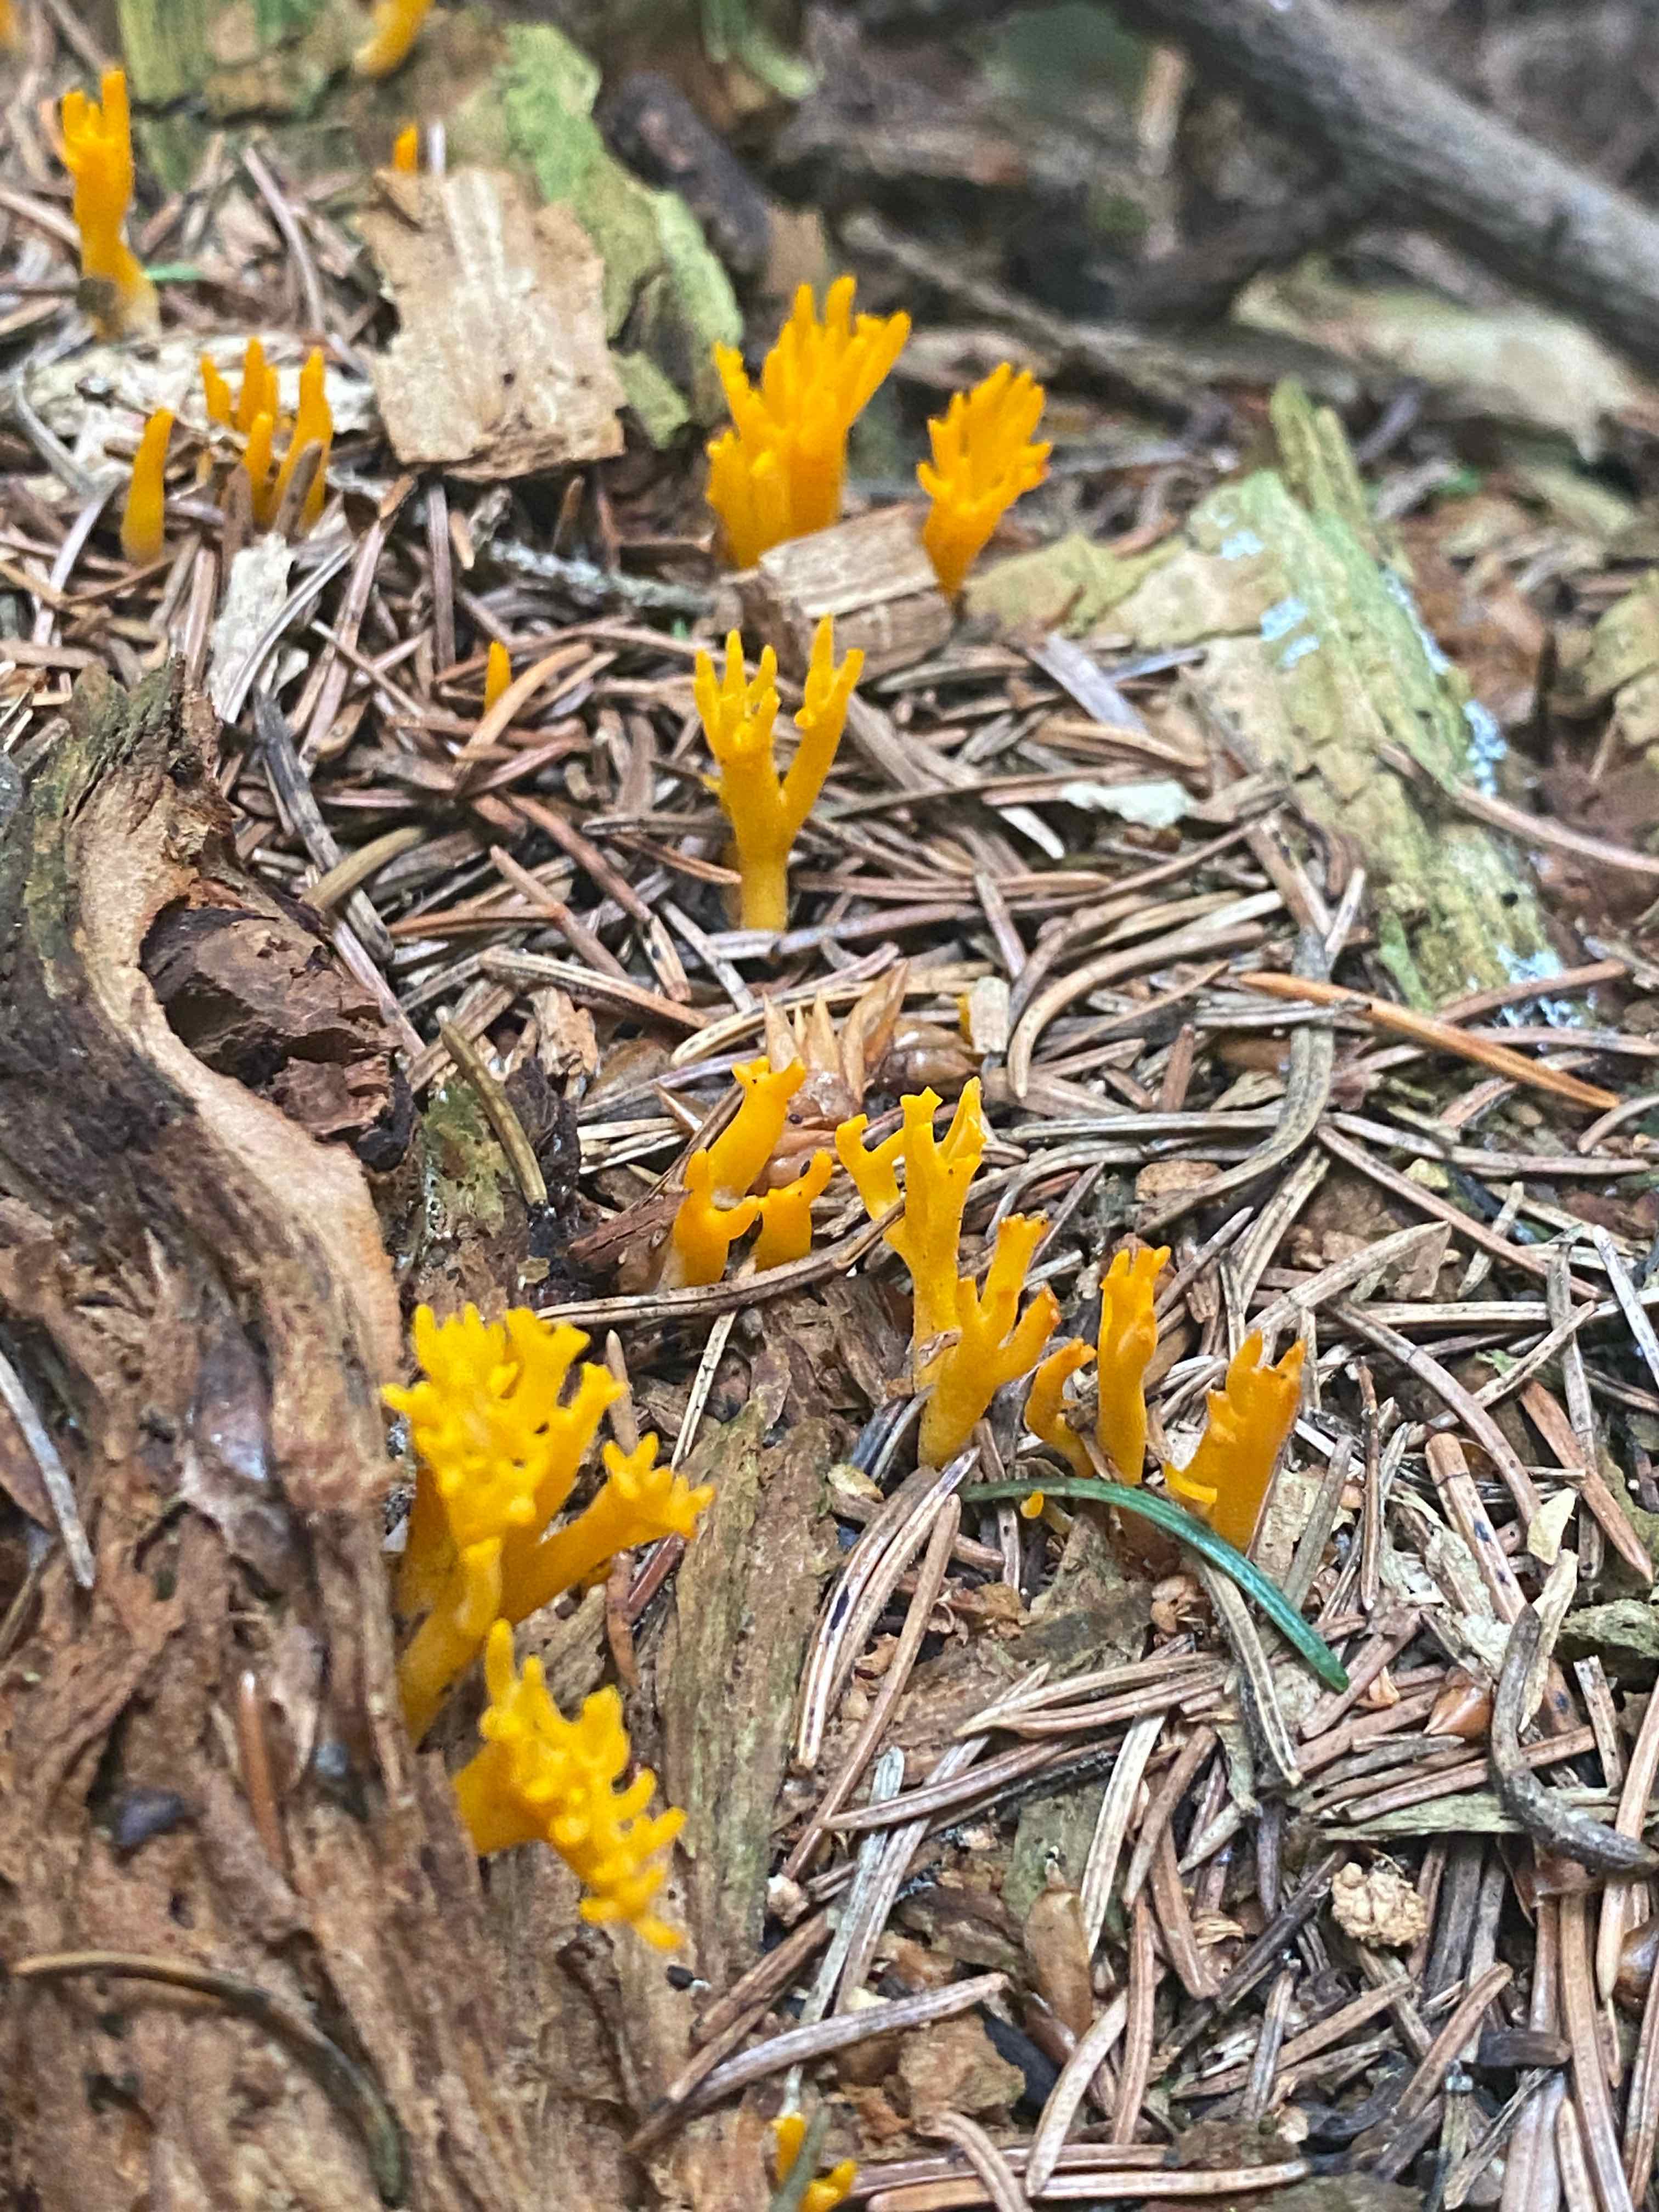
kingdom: Fungi
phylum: Basidiomycota
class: Dacrymycetes
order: Dacrymycetales
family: Dacrymycetaceae
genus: Calocera
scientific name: Calocera viscosa
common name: almindelig guldgaffel
